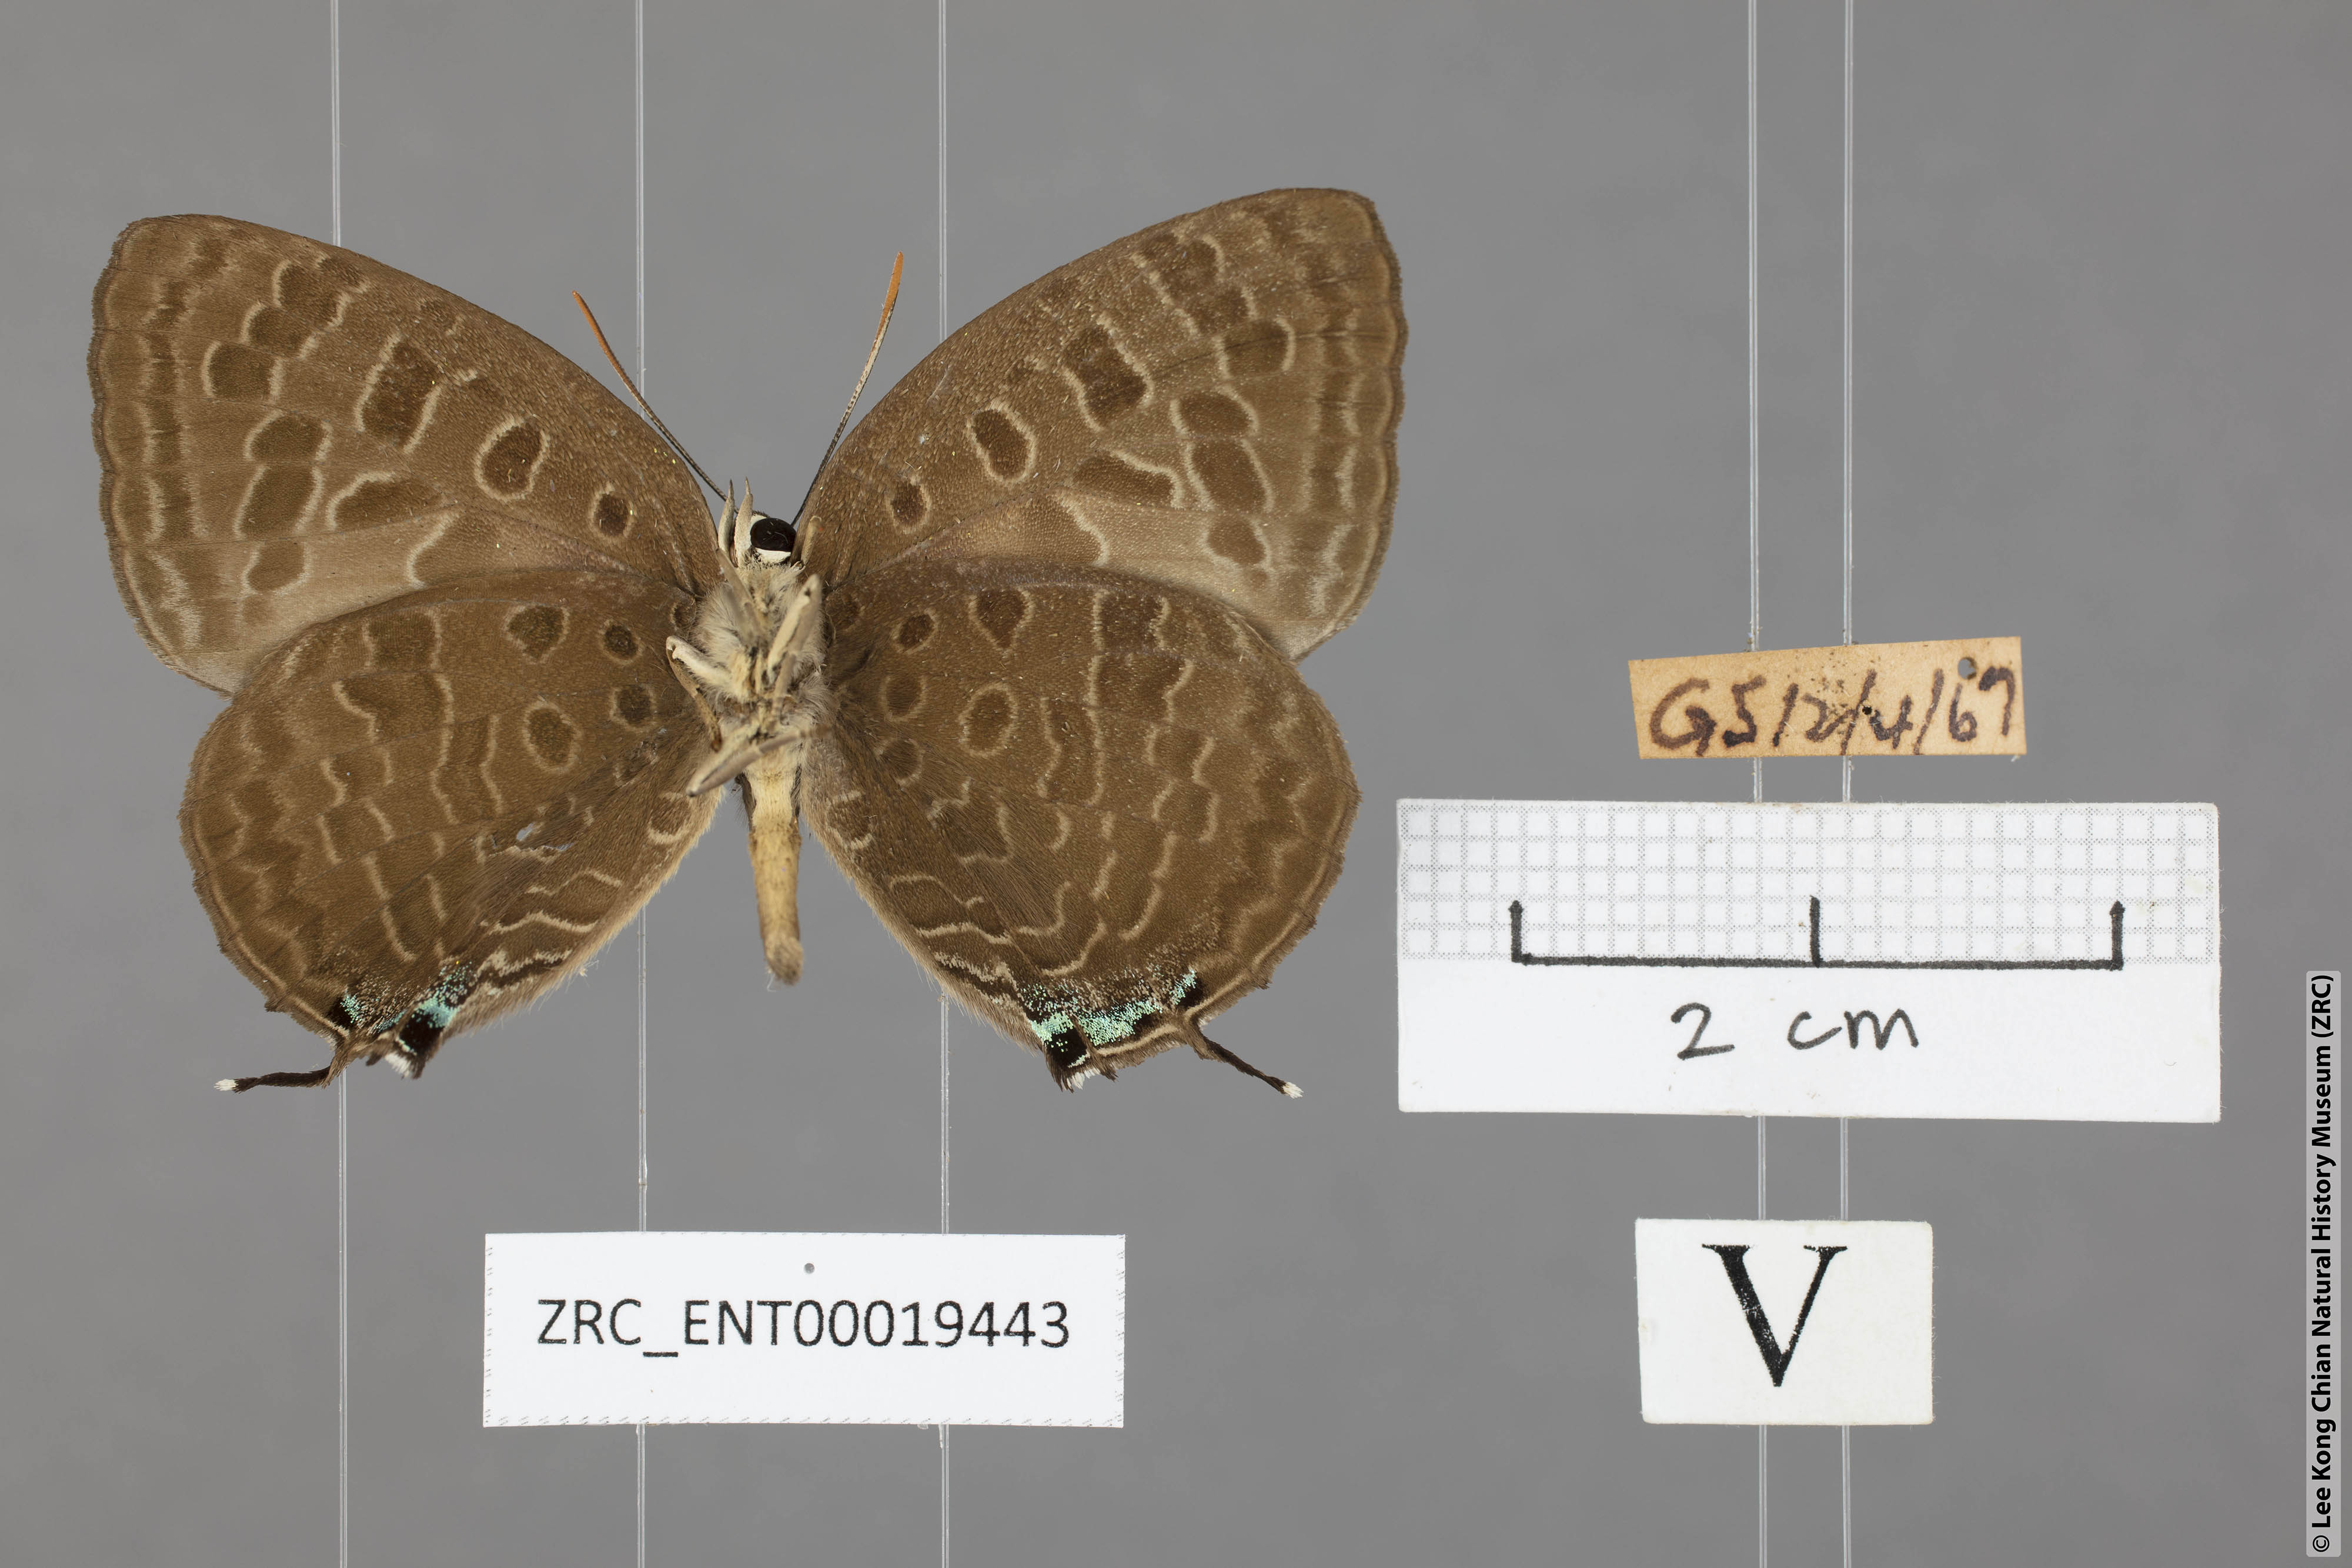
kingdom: Animalia
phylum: Arthropoda
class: Insecta
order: Lepidoptera
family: Lycaenidae
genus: Arhopala
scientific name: Arhopala eumolphus
